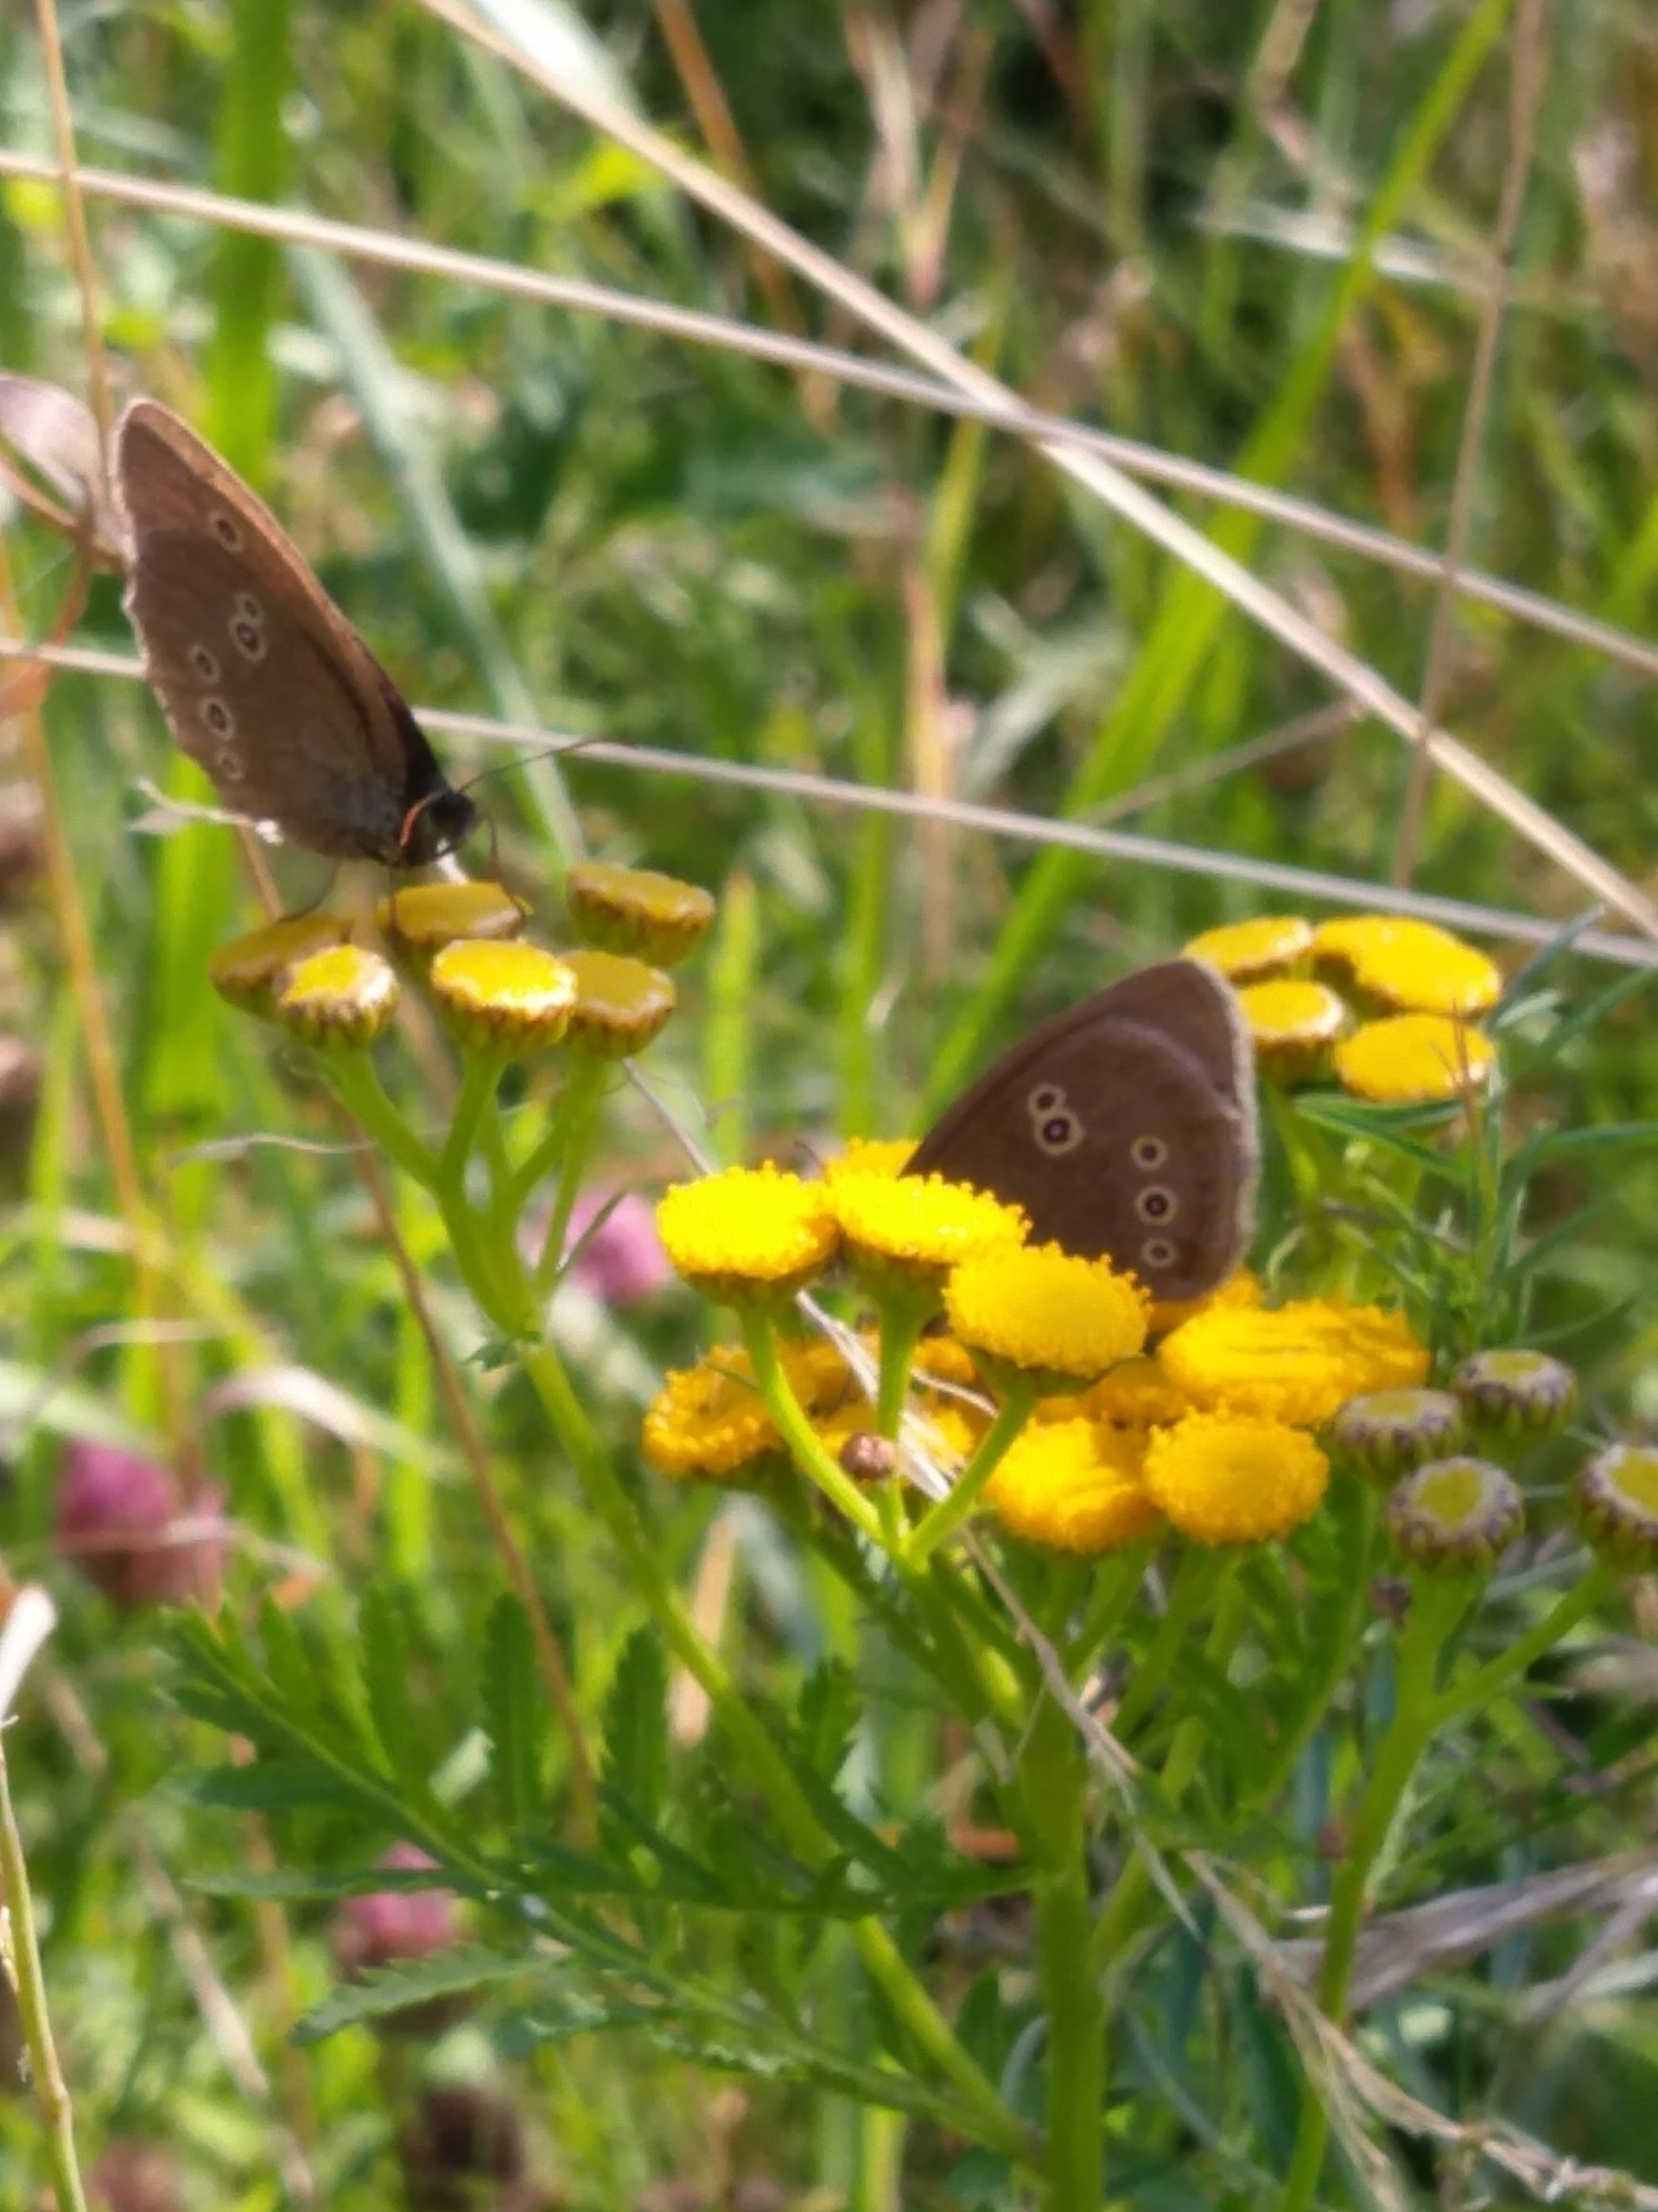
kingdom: Animalia
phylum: Arthropoda
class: Insecta
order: Lepidoptera
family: Nymphalidae
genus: Aphantopus
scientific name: Aphantopus hyperantus
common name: Engrandøje
